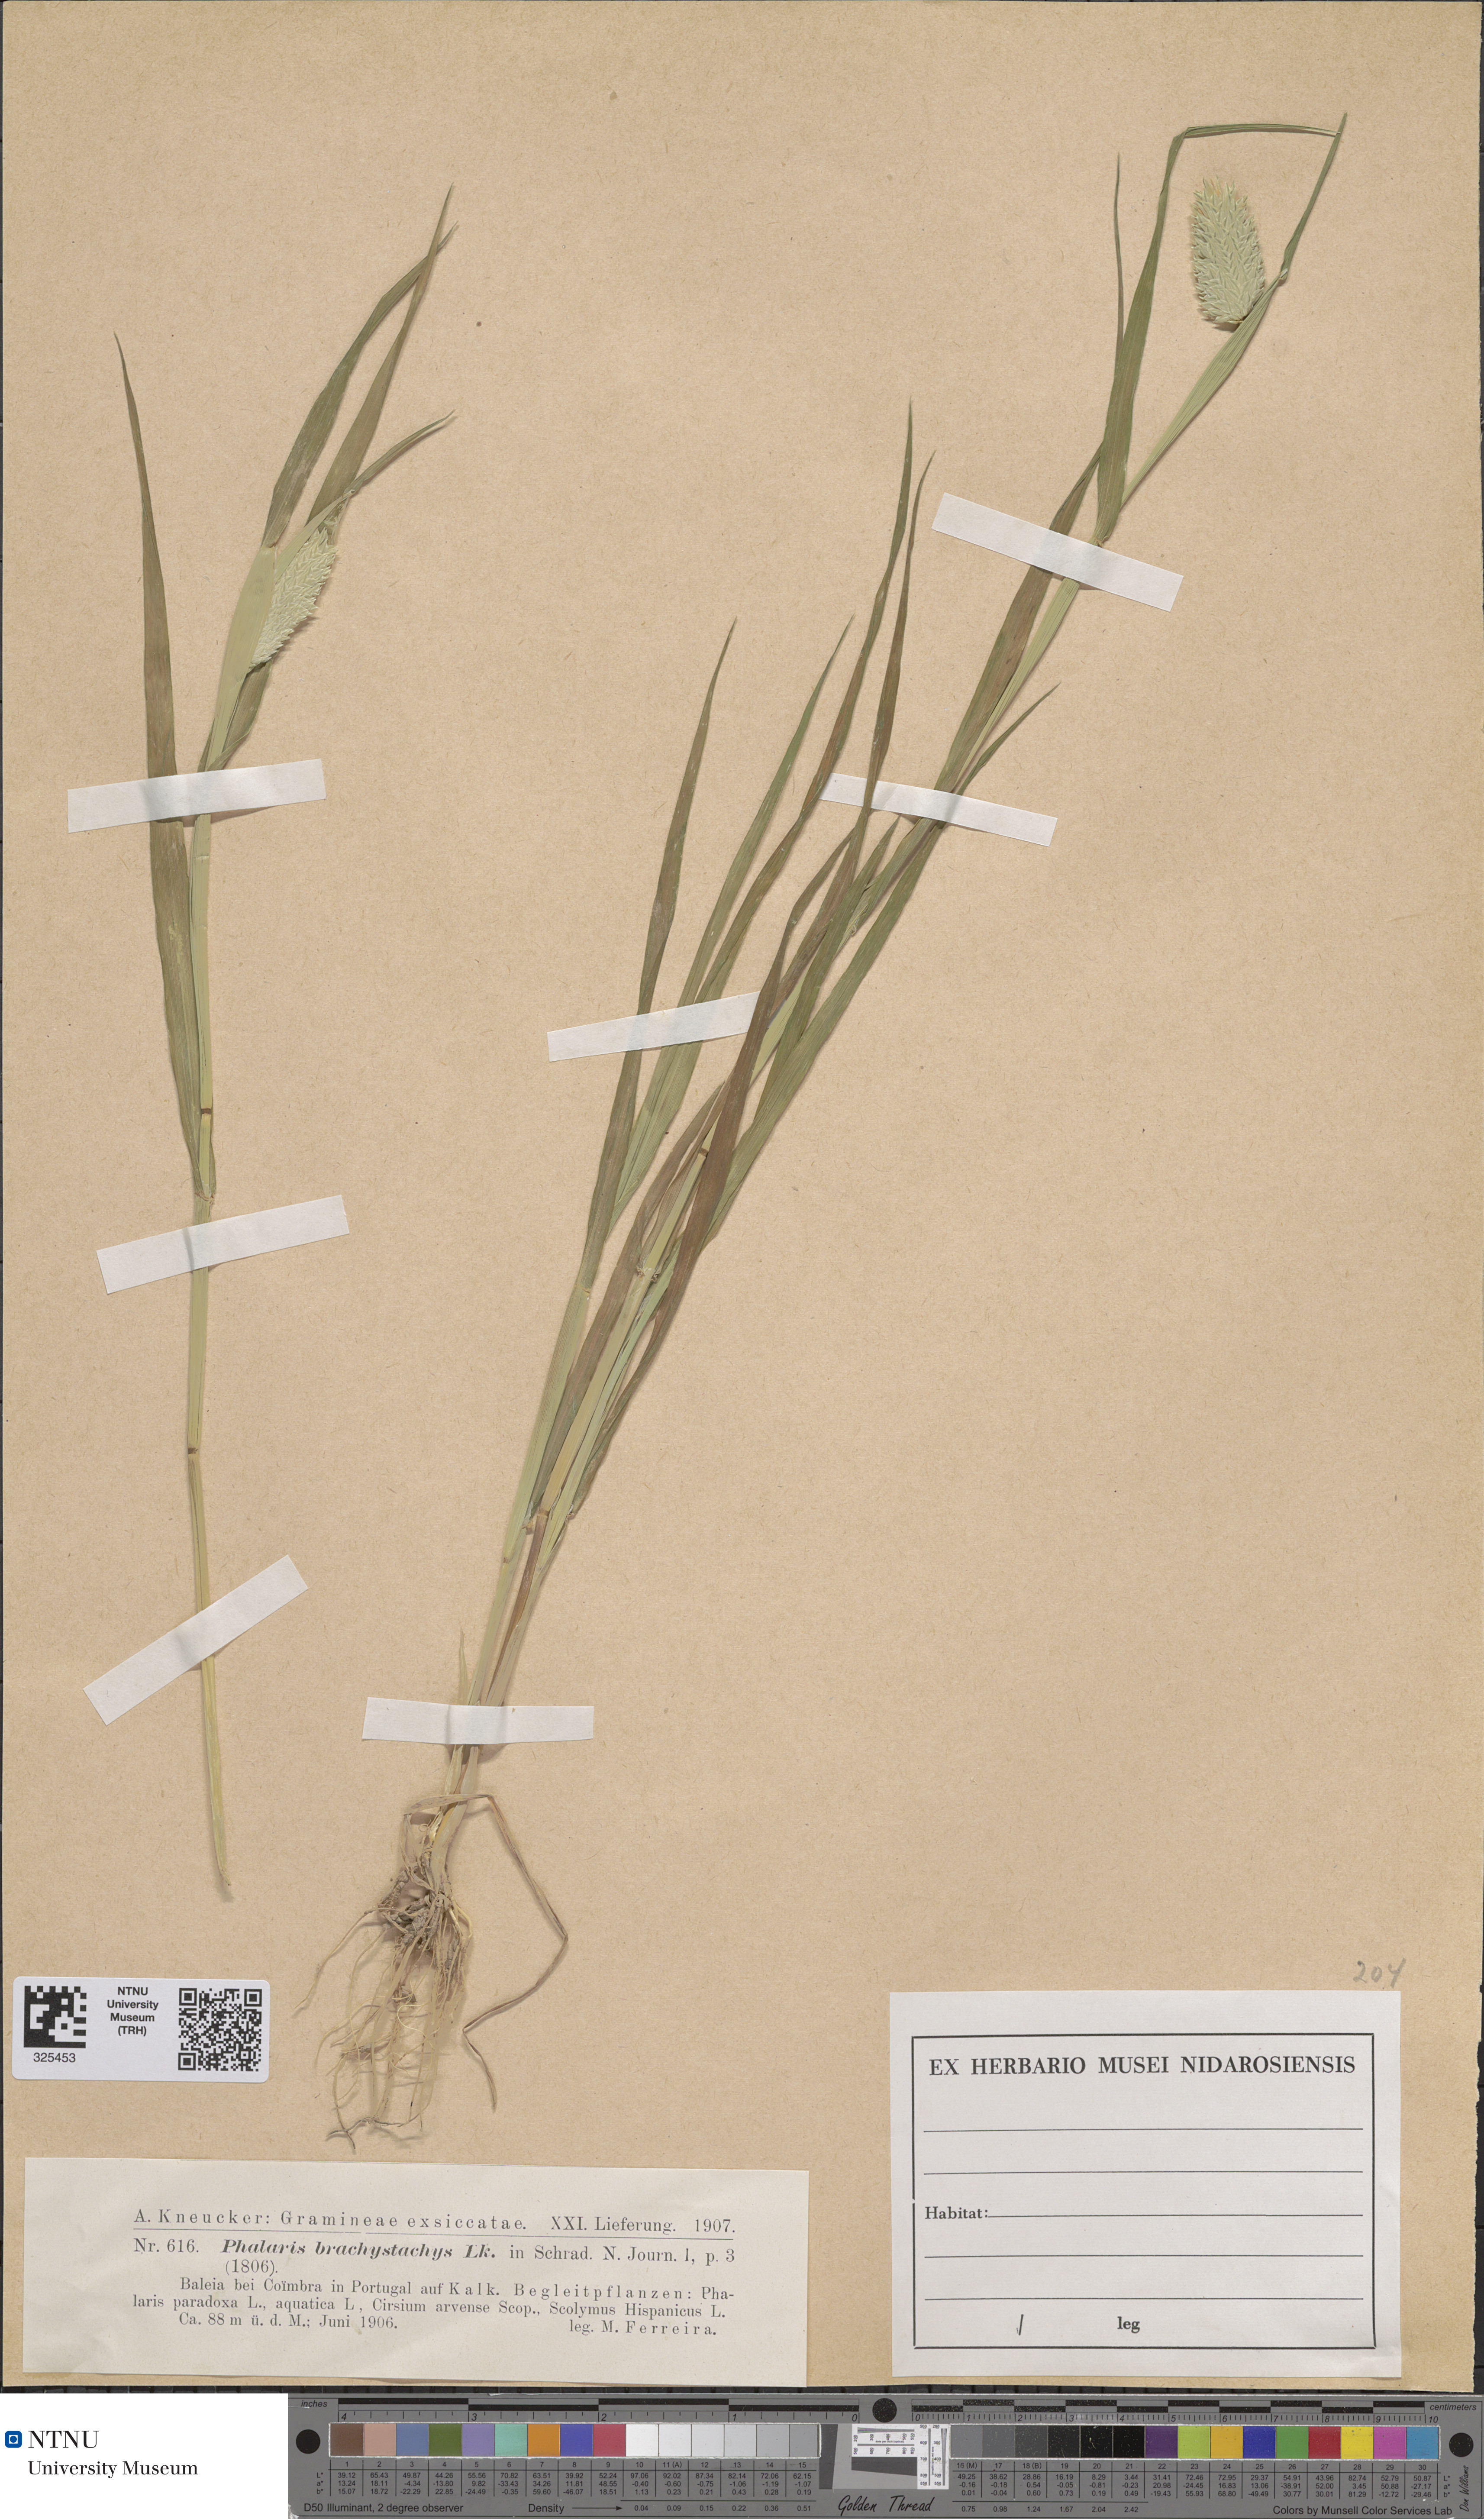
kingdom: Plantae
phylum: Tracheophyta
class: Liliopsida
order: Poales
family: Poaceae
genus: Phalaris
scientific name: Phalaris brachystachys
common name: Confused canary-grass
